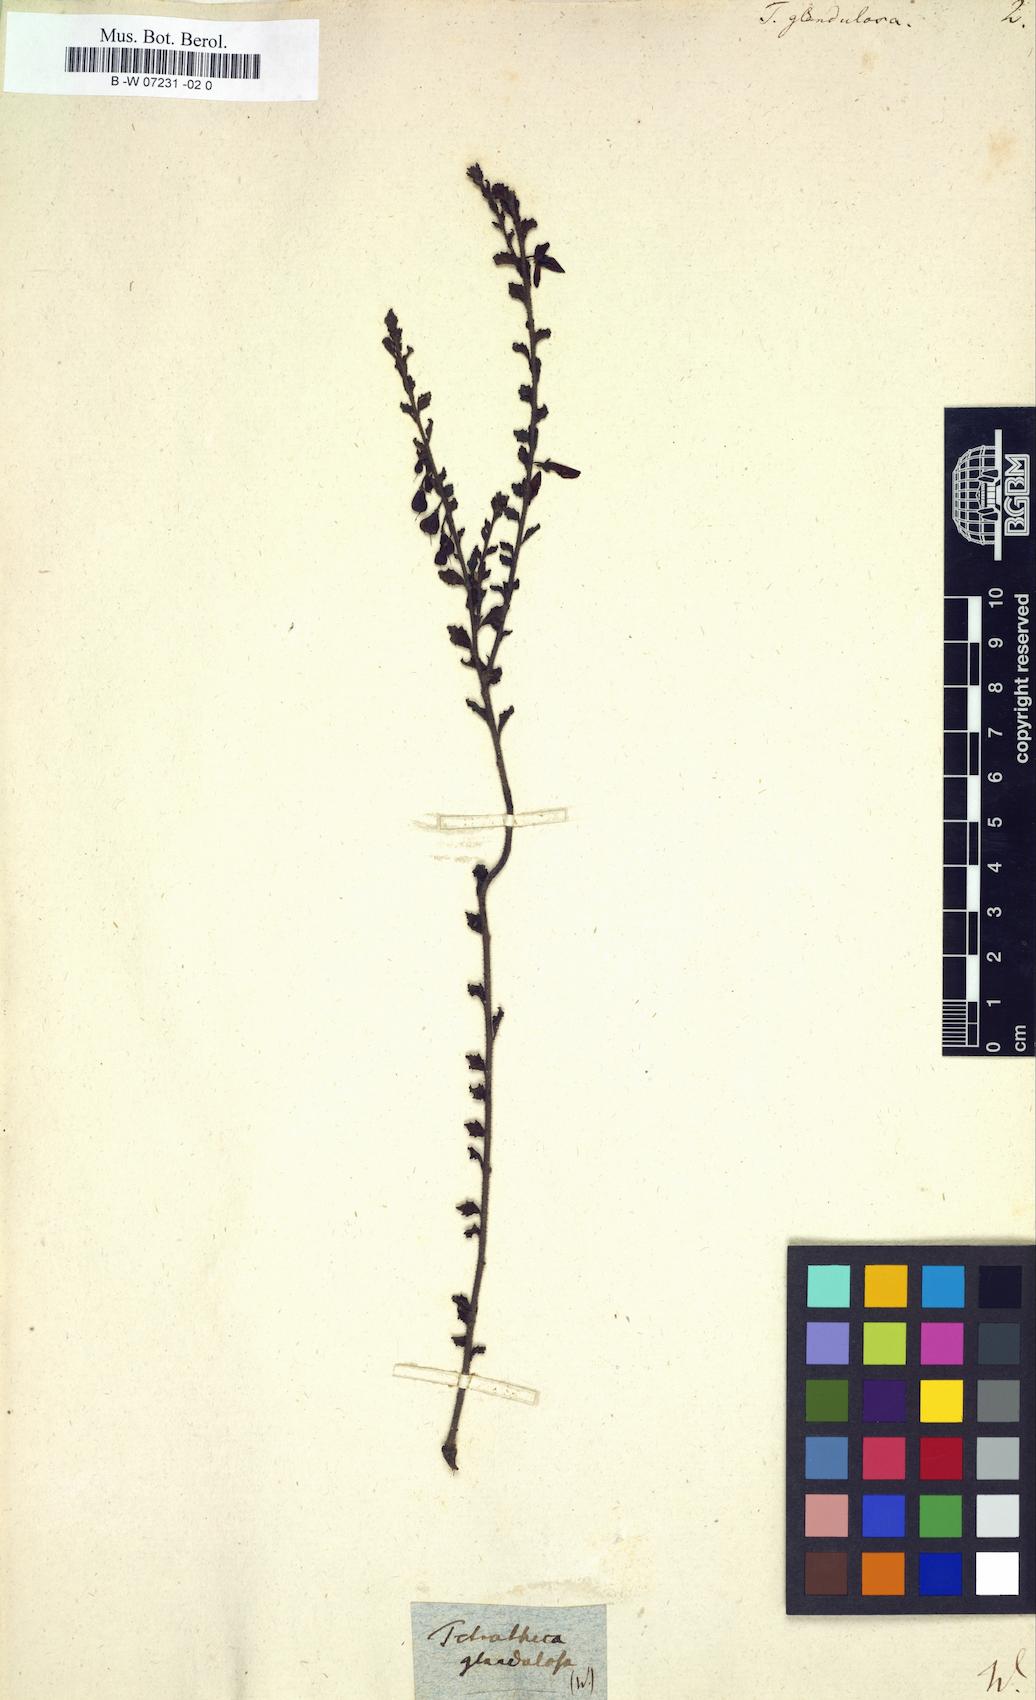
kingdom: Plantae
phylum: Tracheophyta
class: Magnoliopsida
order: Oxalidales
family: Elaeocarpaceae
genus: Tetratheca
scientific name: Tetratheca labillardierei
